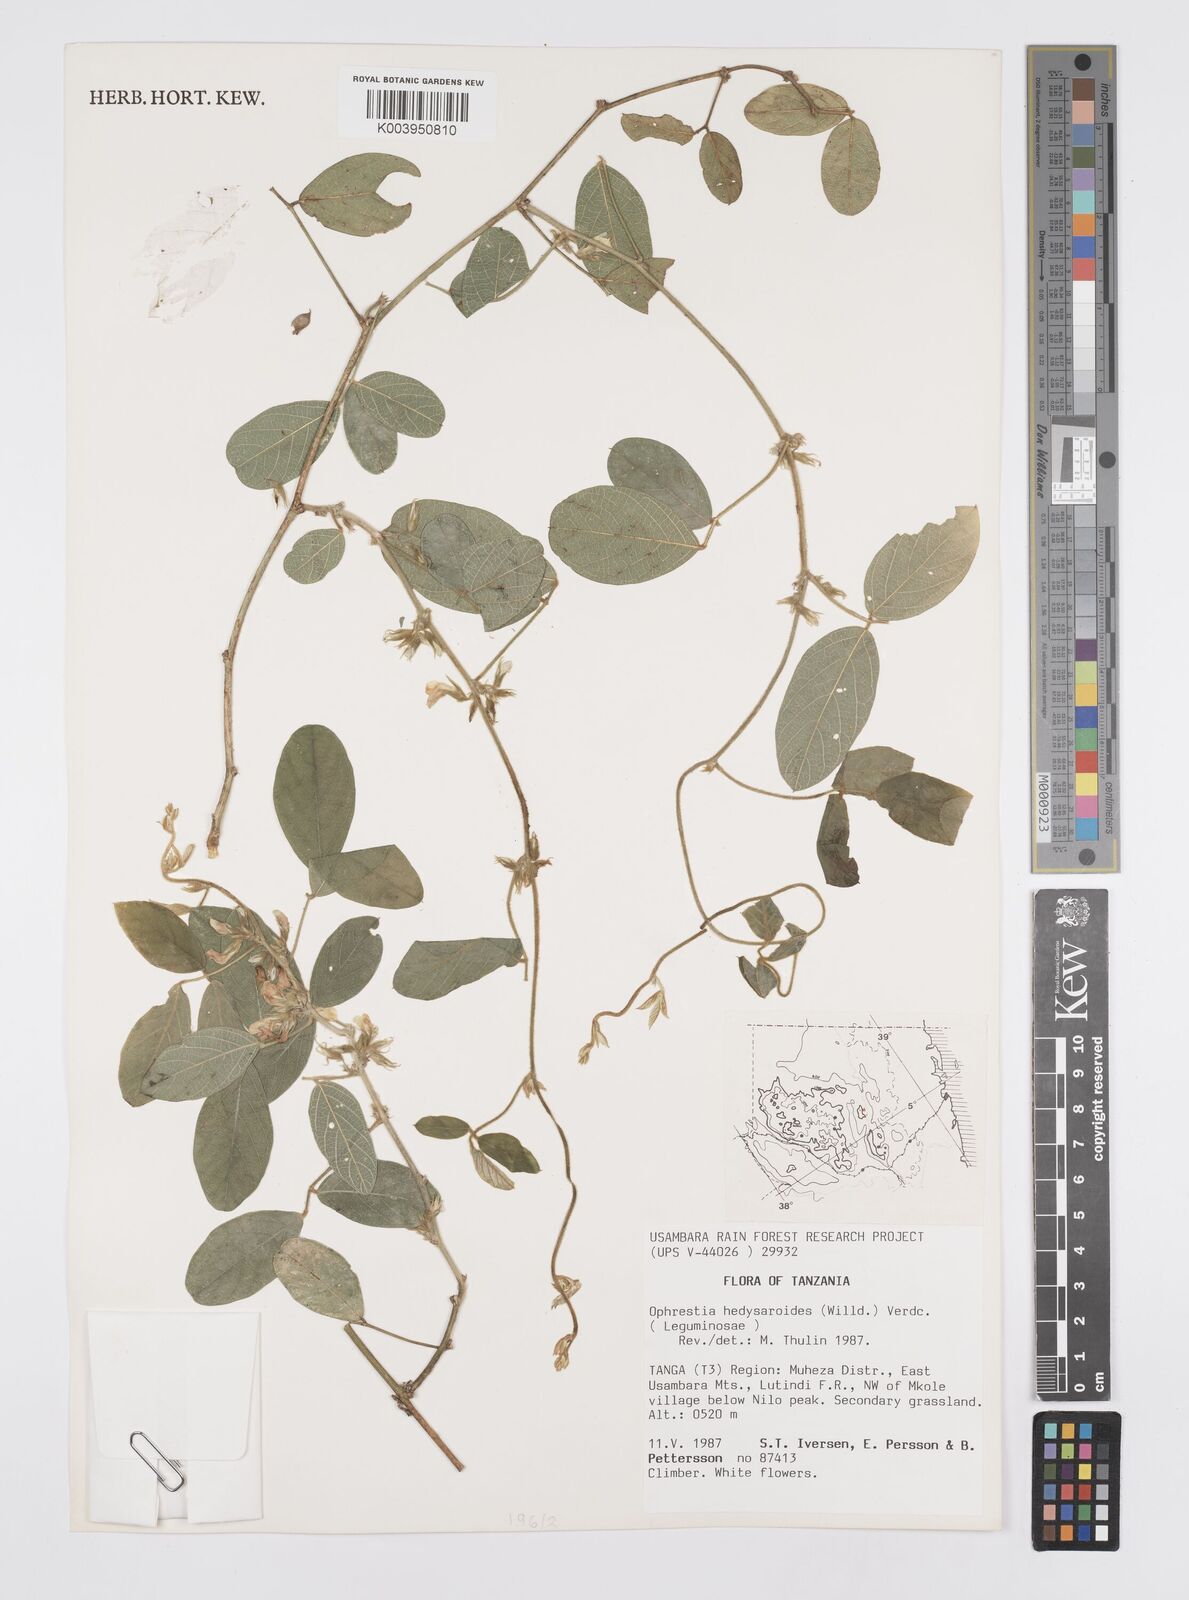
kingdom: Plantae
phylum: Tracheophyta
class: Magnoliopsida
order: Fabales
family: Fabaceae
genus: Ophrestia
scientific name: Ophrestia hedysaroides
